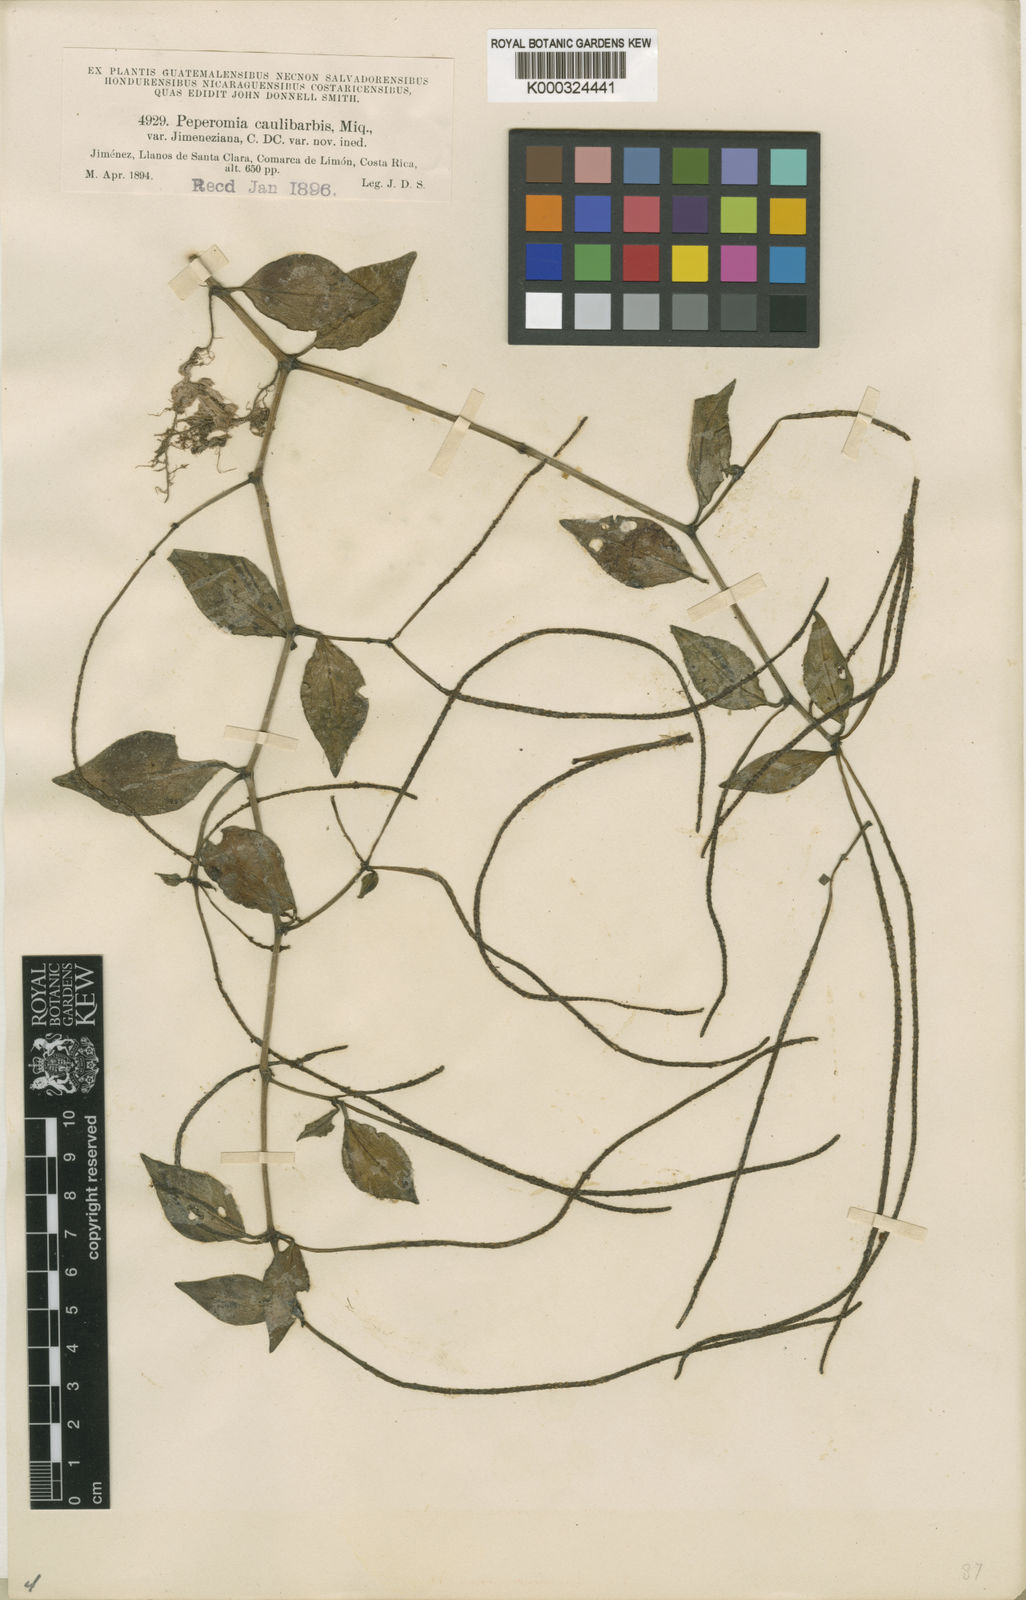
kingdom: Plantae
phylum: Tracheophyta
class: Magnoliopsida
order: Piperales
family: Piperaceae
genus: Peperomia
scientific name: Peperomia glabella
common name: Cypress peperomia
